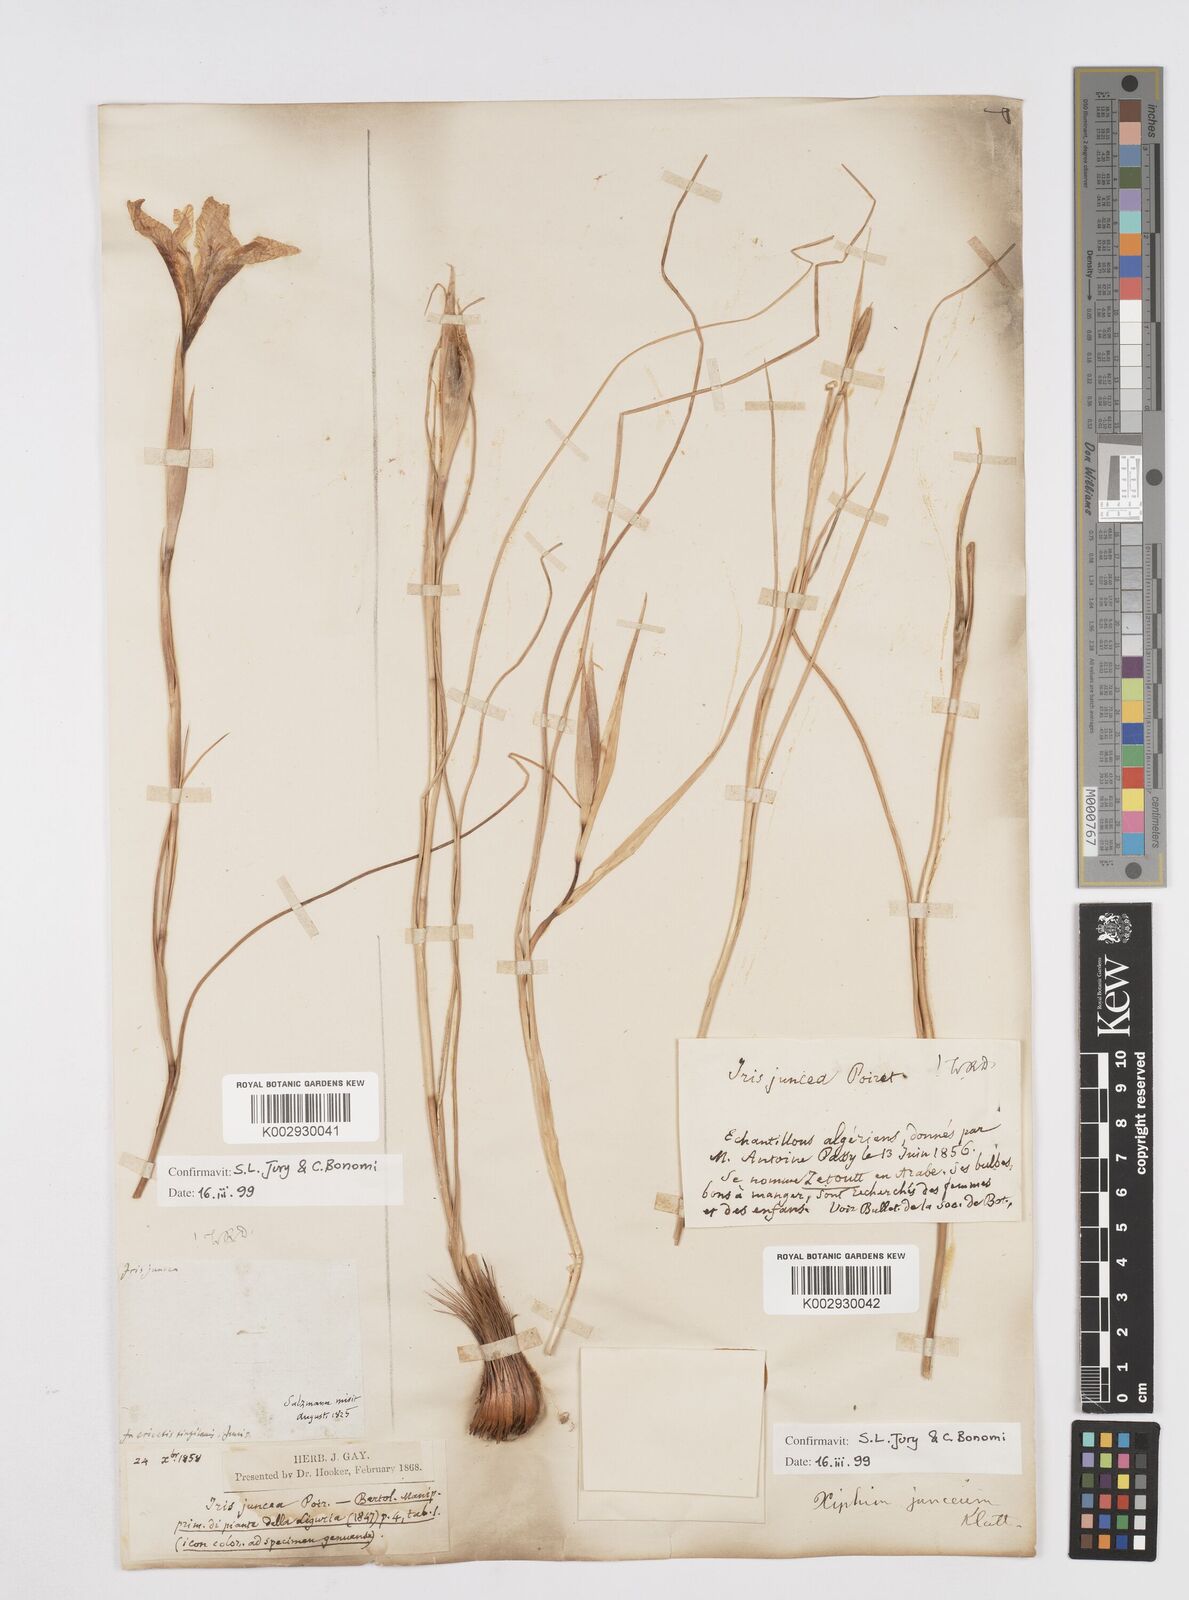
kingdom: Plantae
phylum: Tracheophyta
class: Liliopsida
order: Asparagales
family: Iridaceae
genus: Iris
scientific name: Iris juncea
